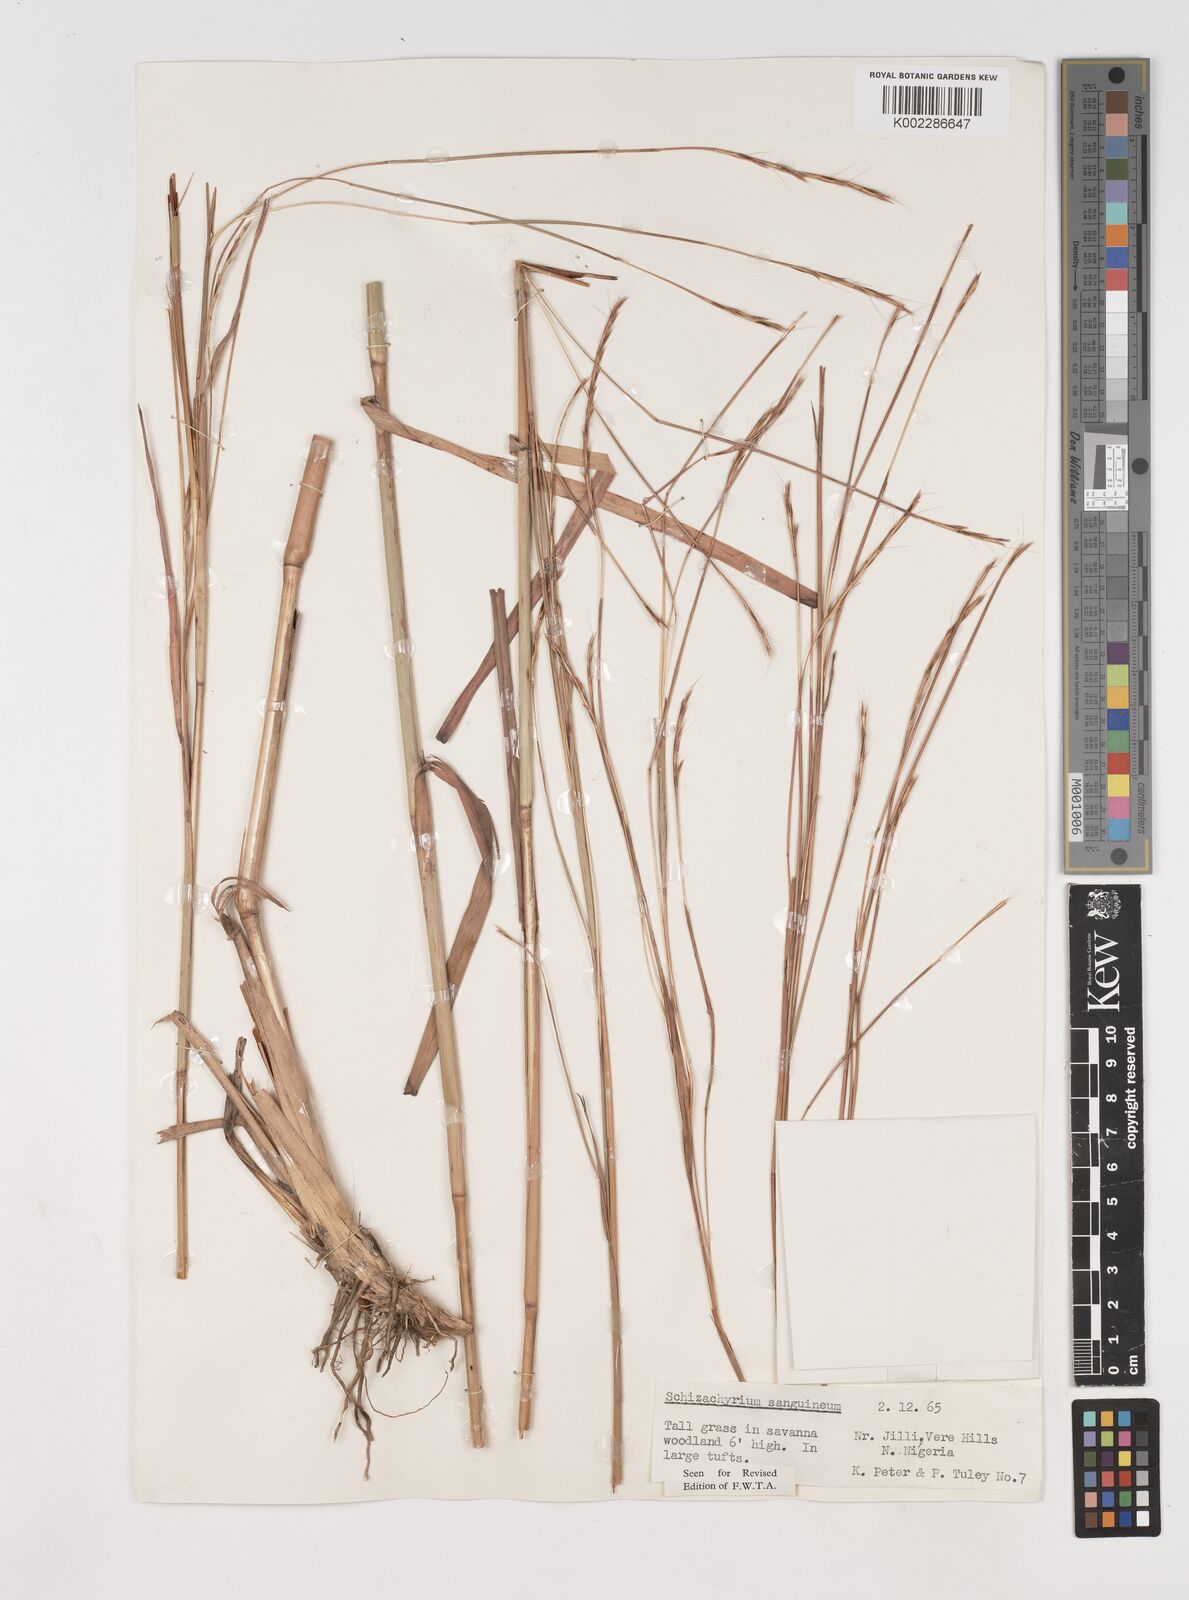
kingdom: Plantae
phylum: Tracheophyta
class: Liliopsida
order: Poales
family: Poaceae
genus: Schizachyrium
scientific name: Schizachyrium sanguineum
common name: Crimson bluestem
